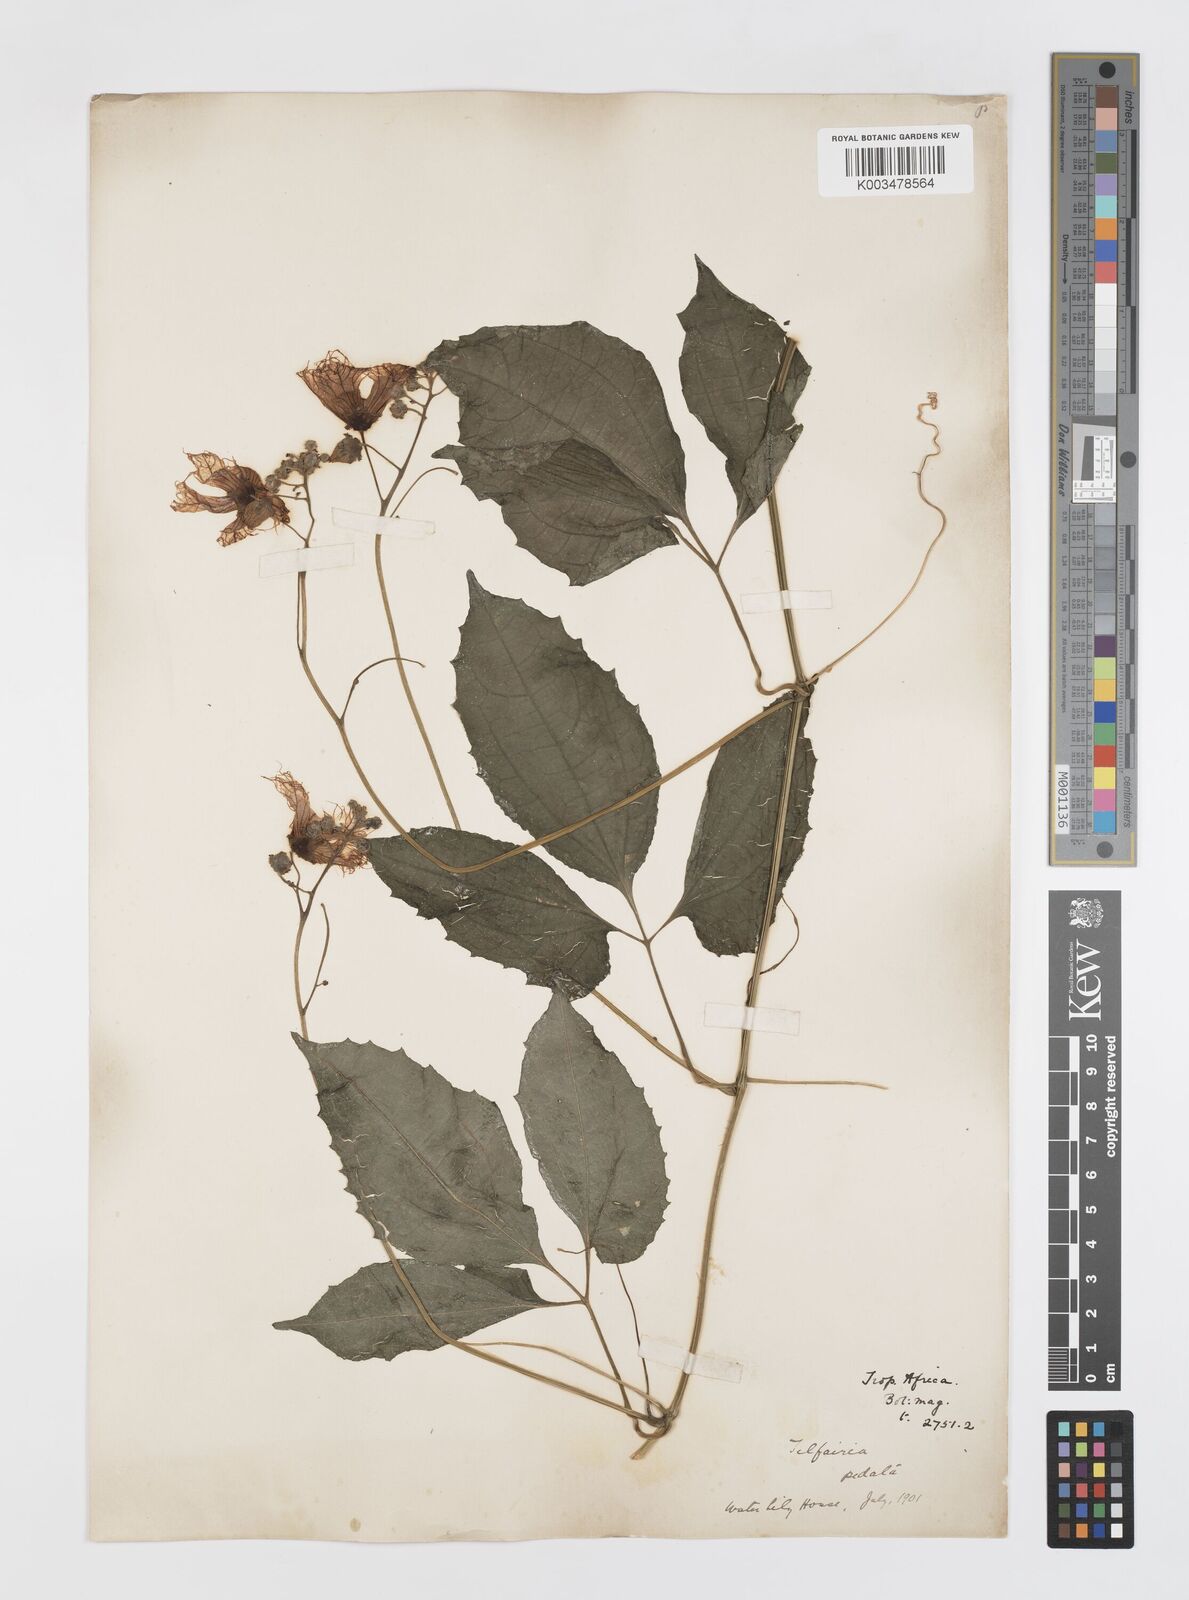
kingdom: Plantae
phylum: Tracheophyta
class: Magnoliopsida
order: Cucurbitales
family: Cucurbitaceae
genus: Telfairia
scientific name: Telfairia occidentalis
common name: Oysternut
